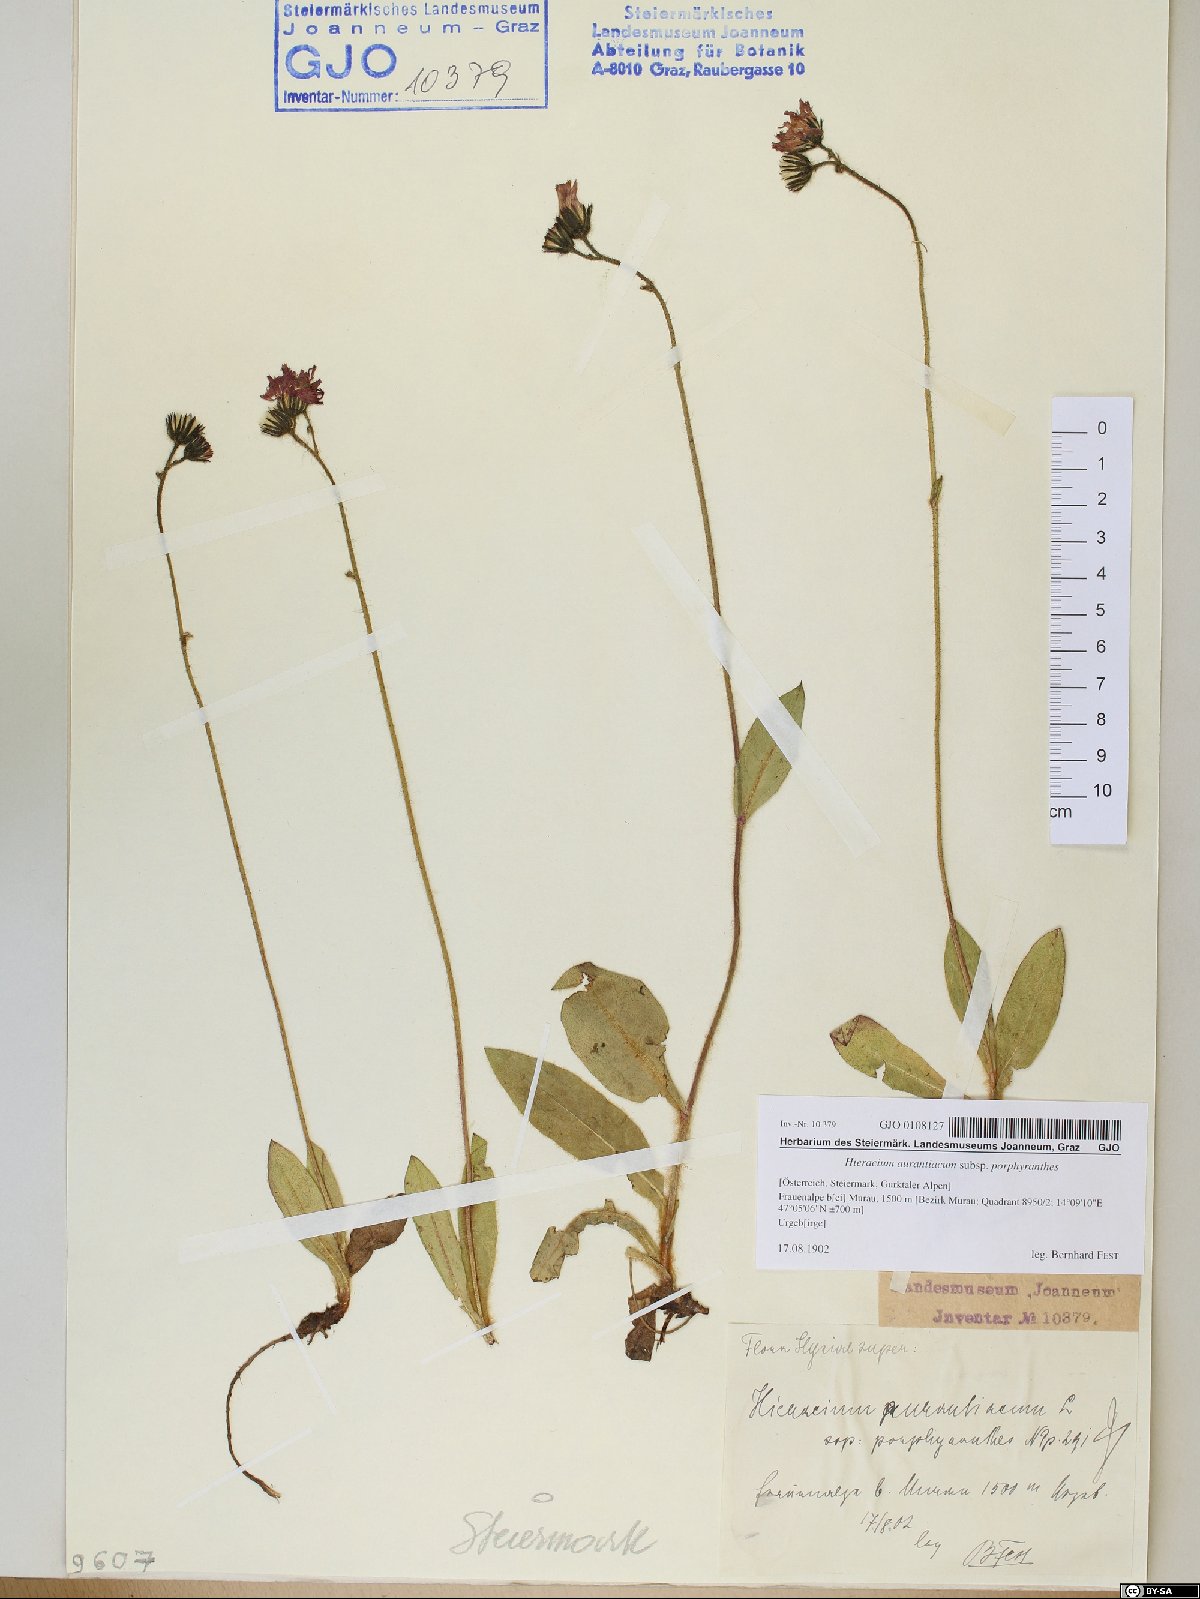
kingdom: Plantae
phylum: Tracheophyta
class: Magnoliopsida
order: Asterales
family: Asteraceae
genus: Pilosella
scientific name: Pilosella aurantiaca
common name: Fox-and-cubs
